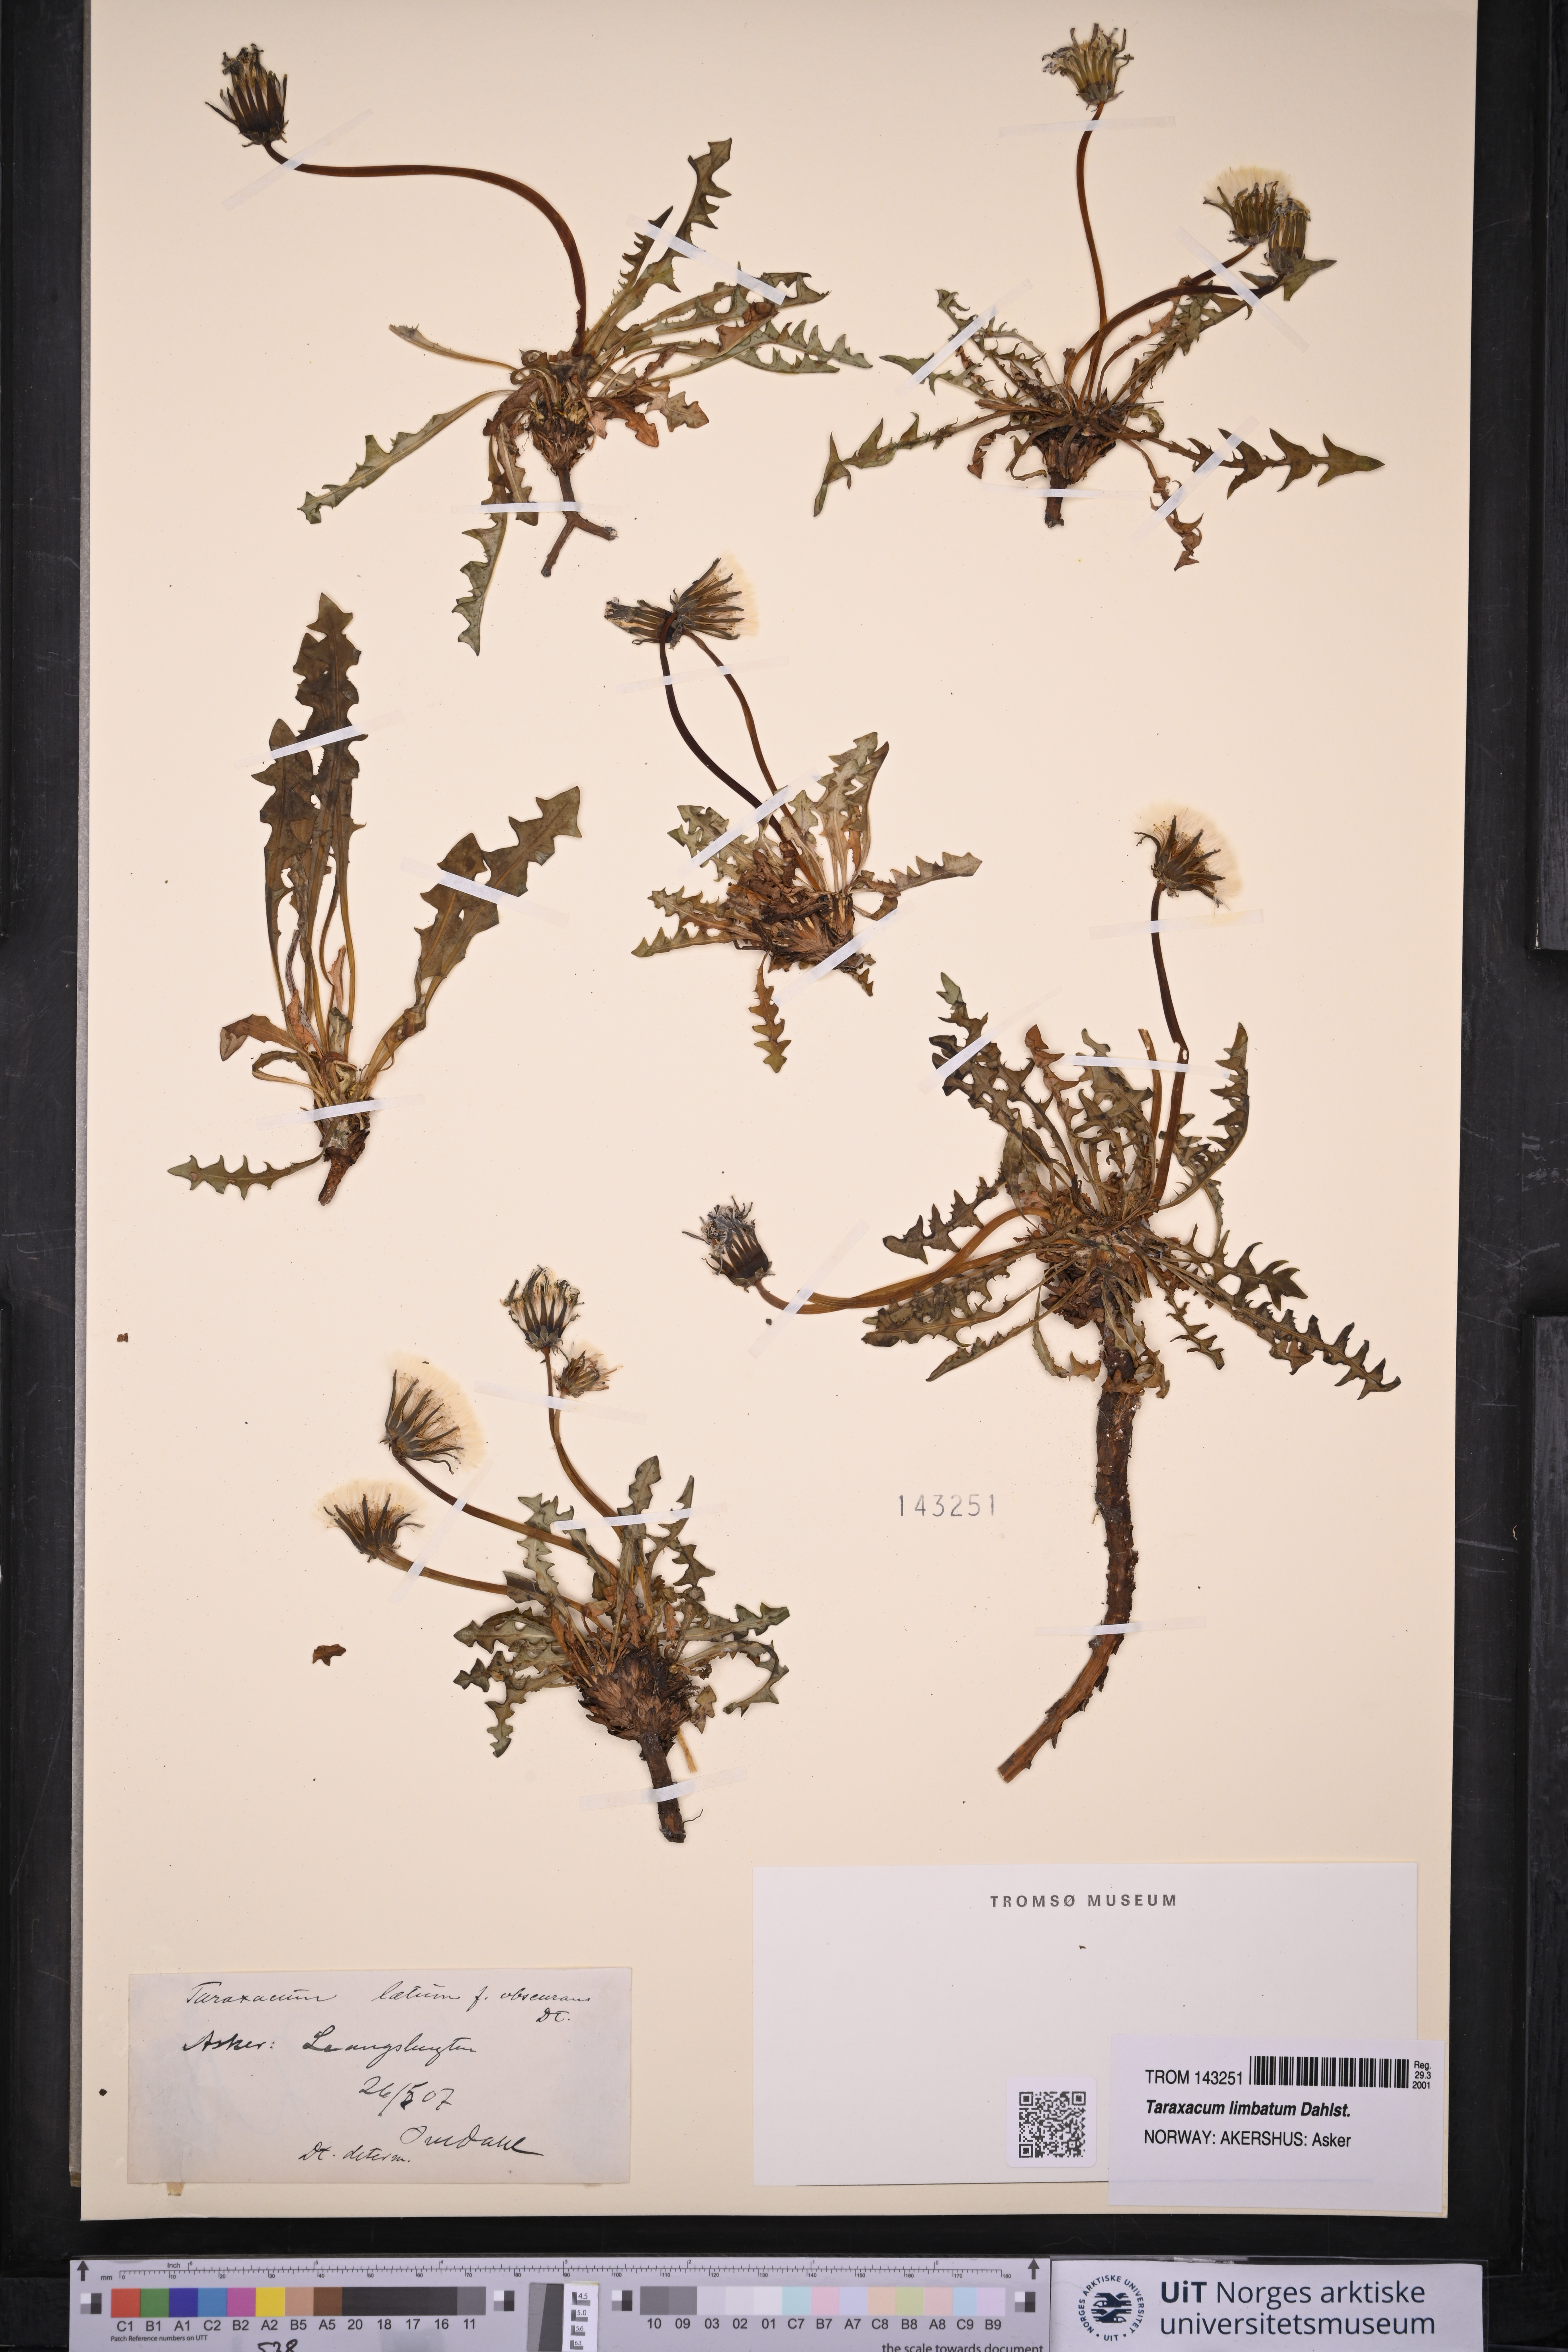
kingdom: Plantae
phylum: Tracheophyta
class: Magnoliopsida
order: Asterales
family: Asteraceae
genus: Taraxacum
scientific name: Taraxacum limbatum
